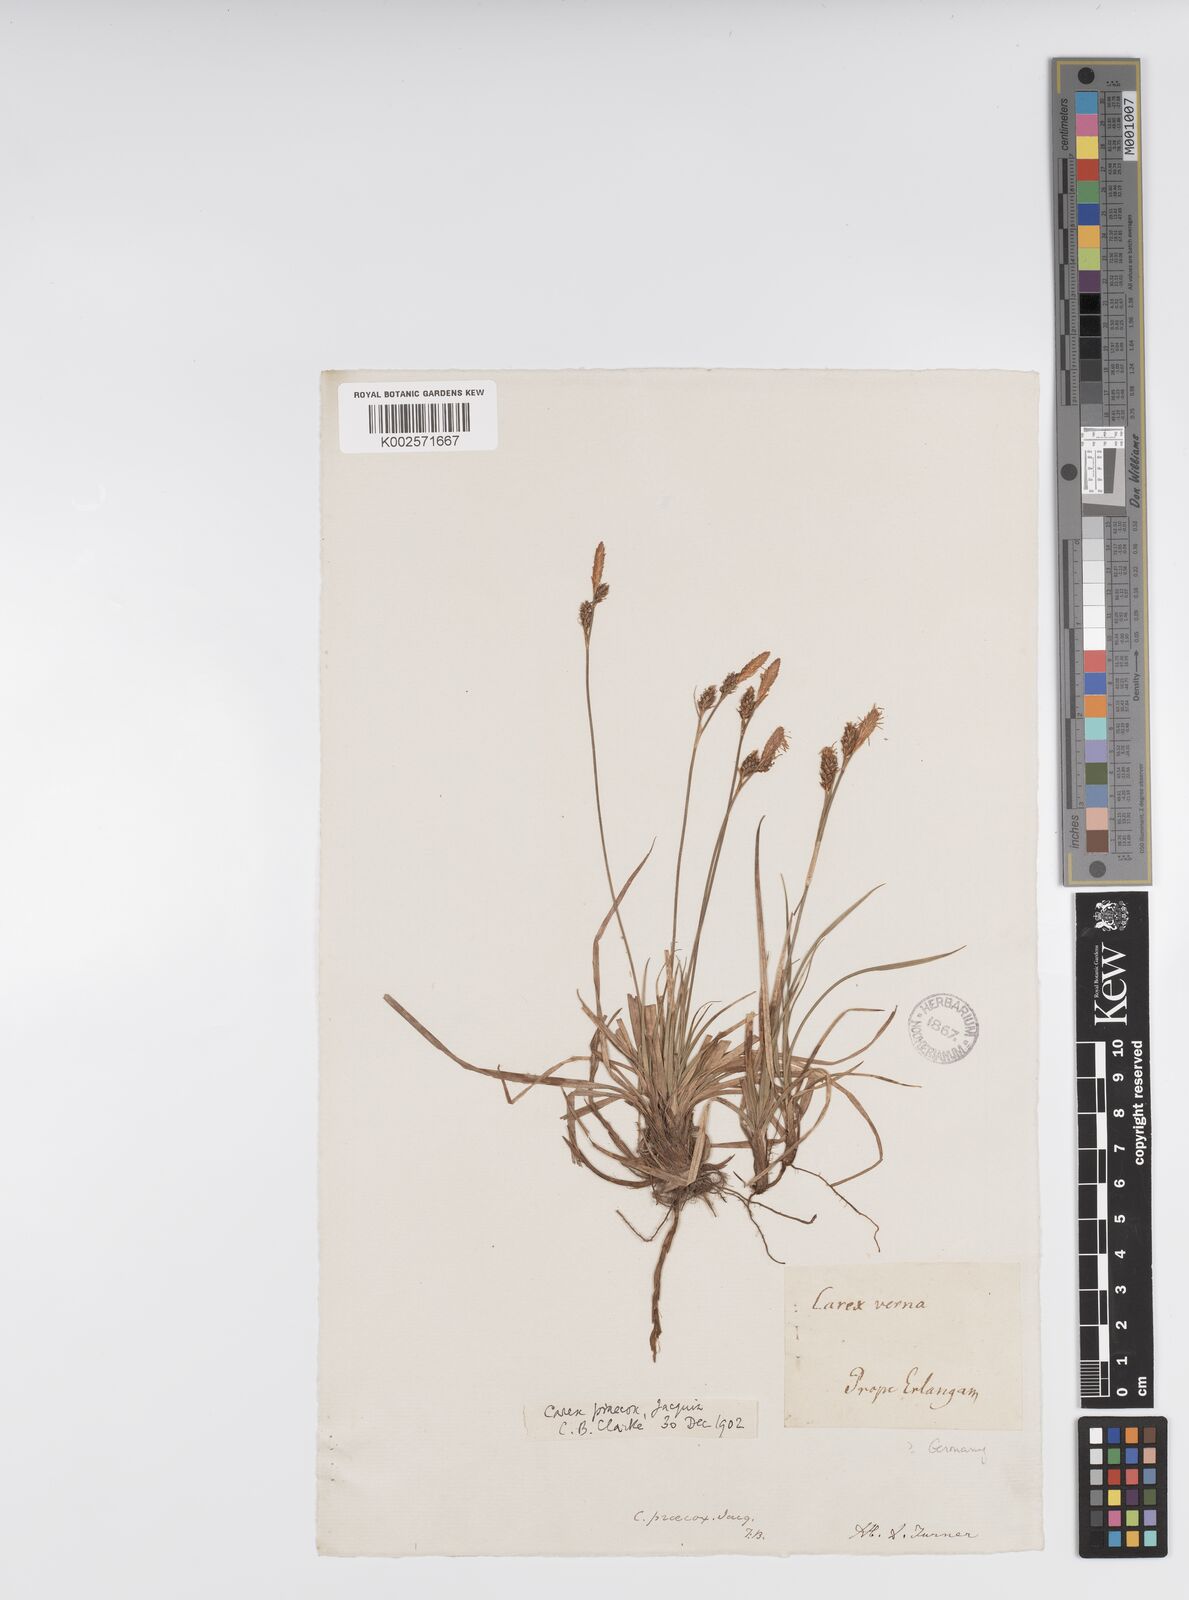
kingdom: Plantae
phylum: Tracheophyta
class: Liliopsida
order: Poales
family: Cyperaceae
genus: Carex
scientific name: Carex caryophyllea
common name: Spring sedge
